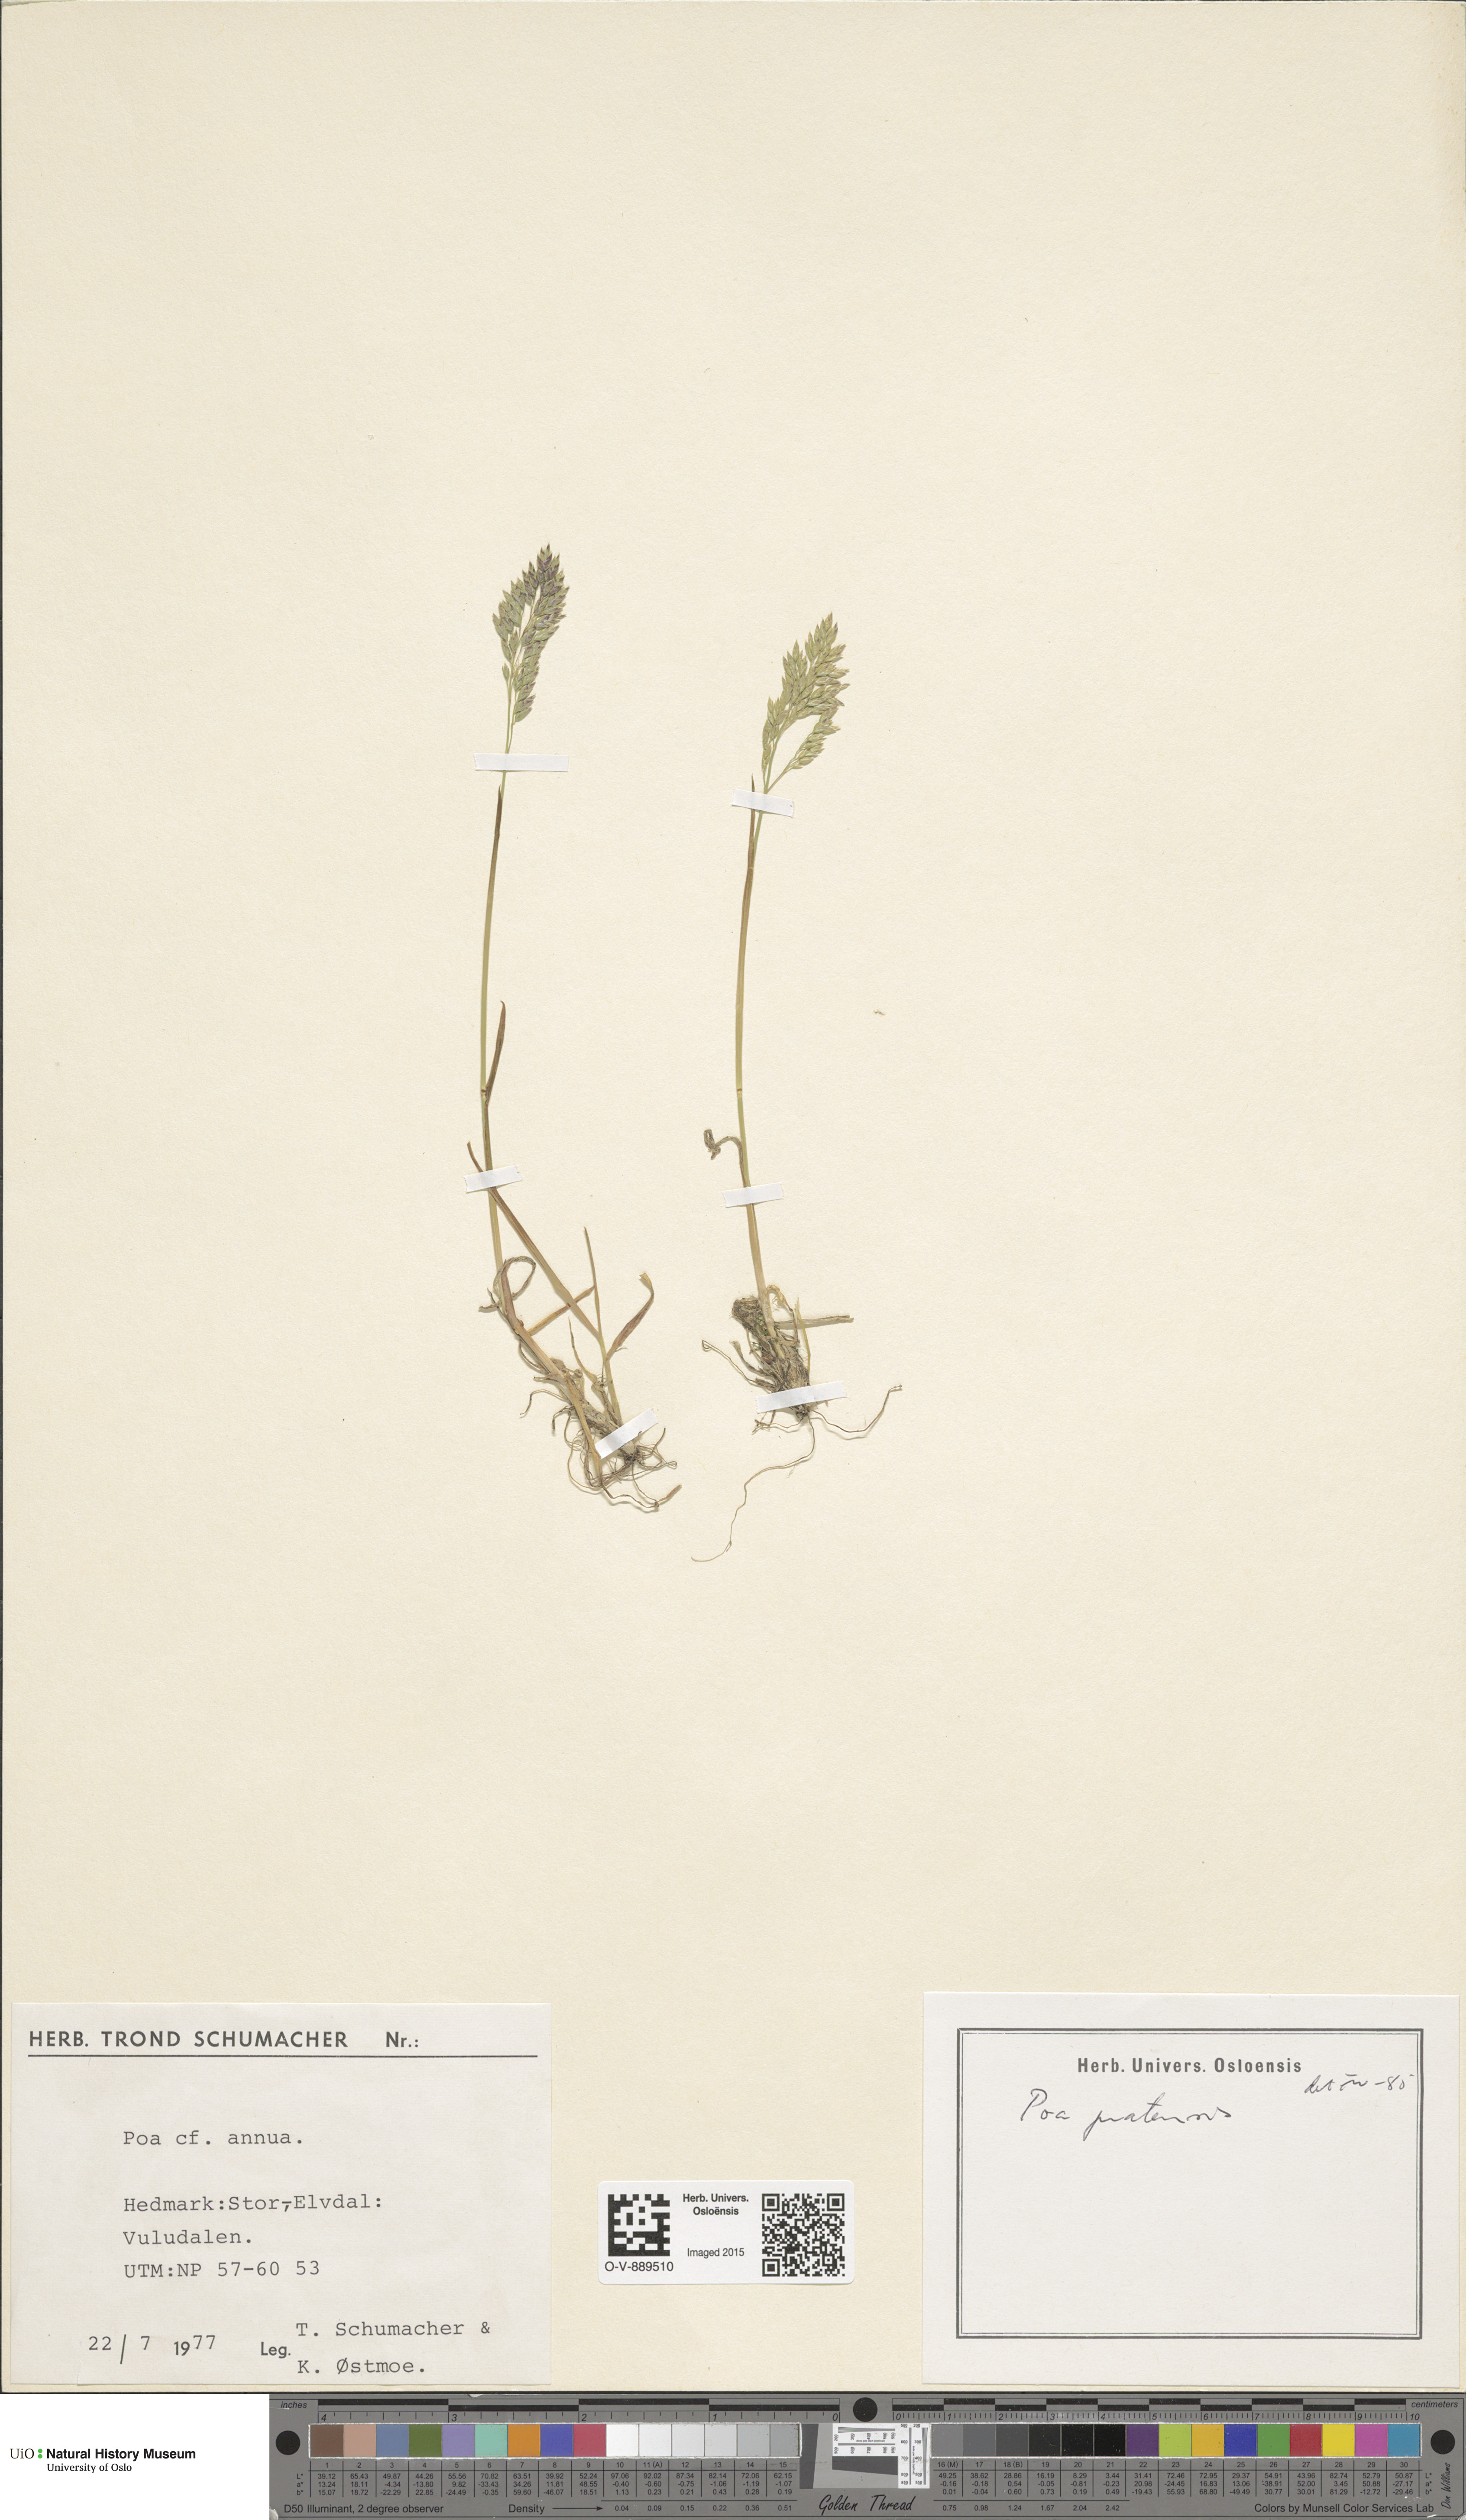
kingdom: Plantae
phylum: Tracheophyta
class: Liliopsida
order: Poales
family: Poaceae
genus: Poa
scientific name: Poa pratensis
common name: Kentucky bluegrass
